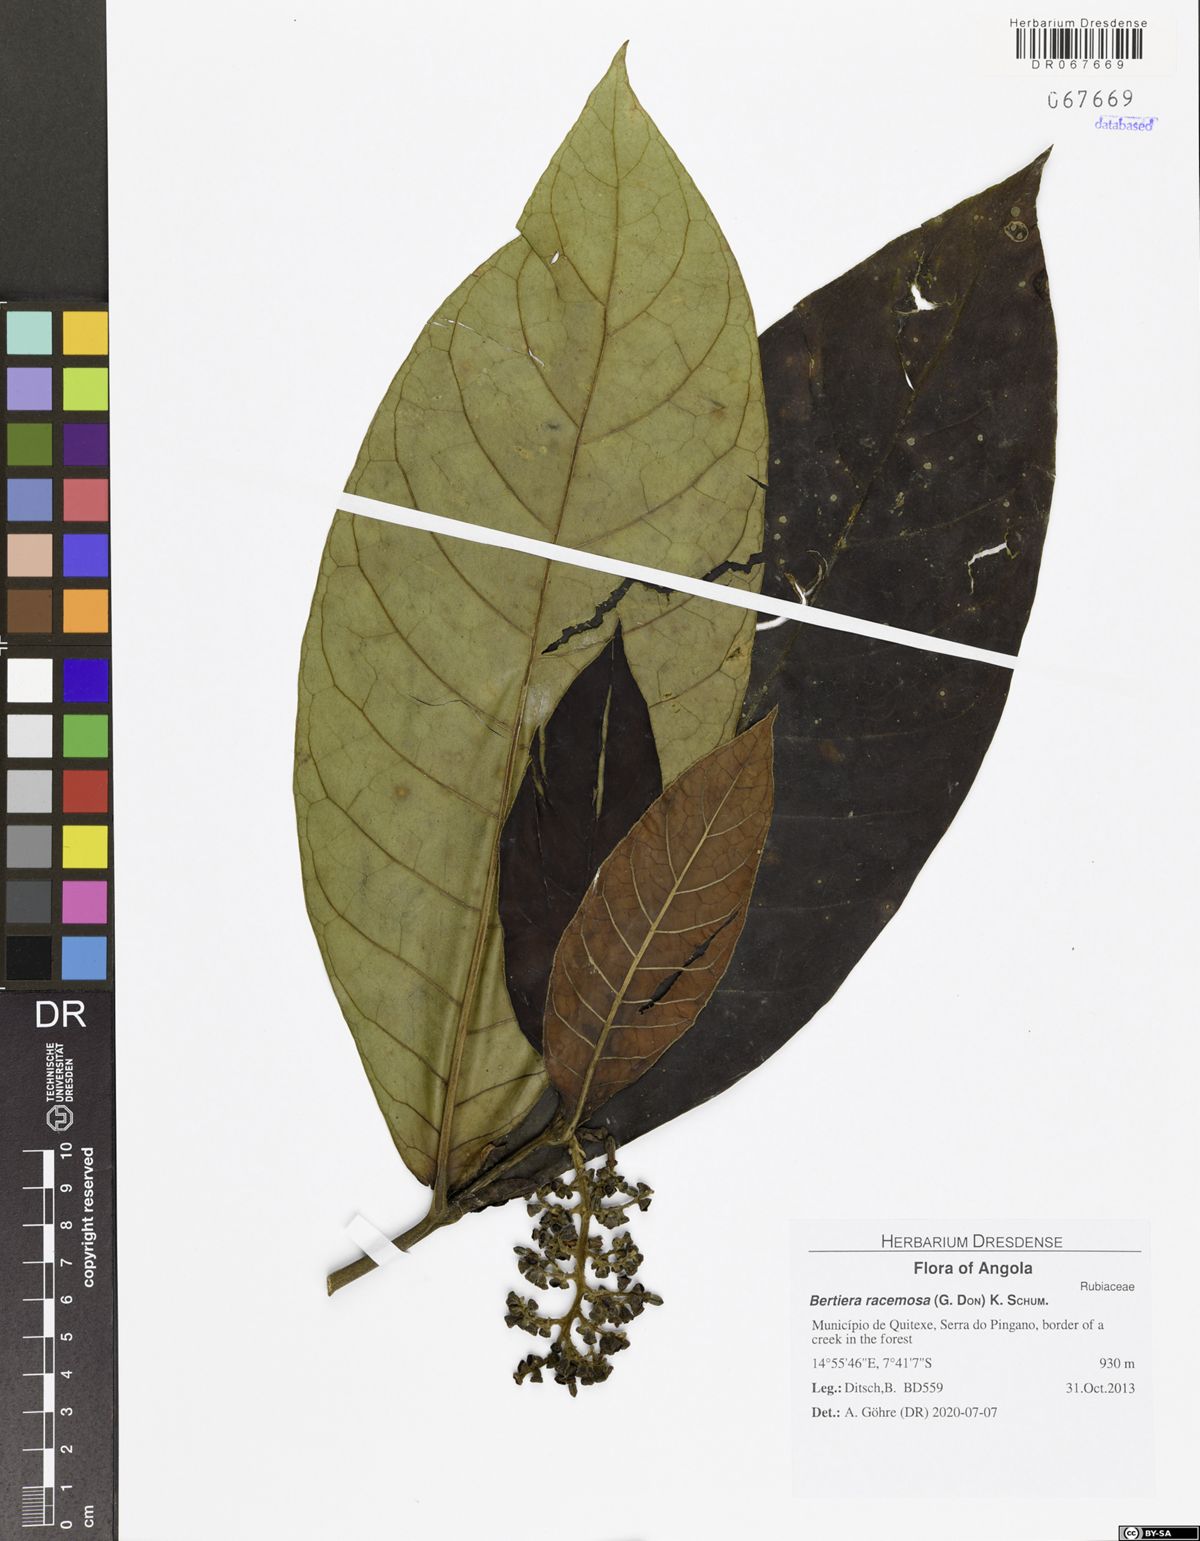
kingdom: Plantae
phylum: Tracheophyta
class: Magnoliopsida
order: Gentianales
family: Rubiaceae
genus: Bertiera
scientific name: Bertiera racemosa
